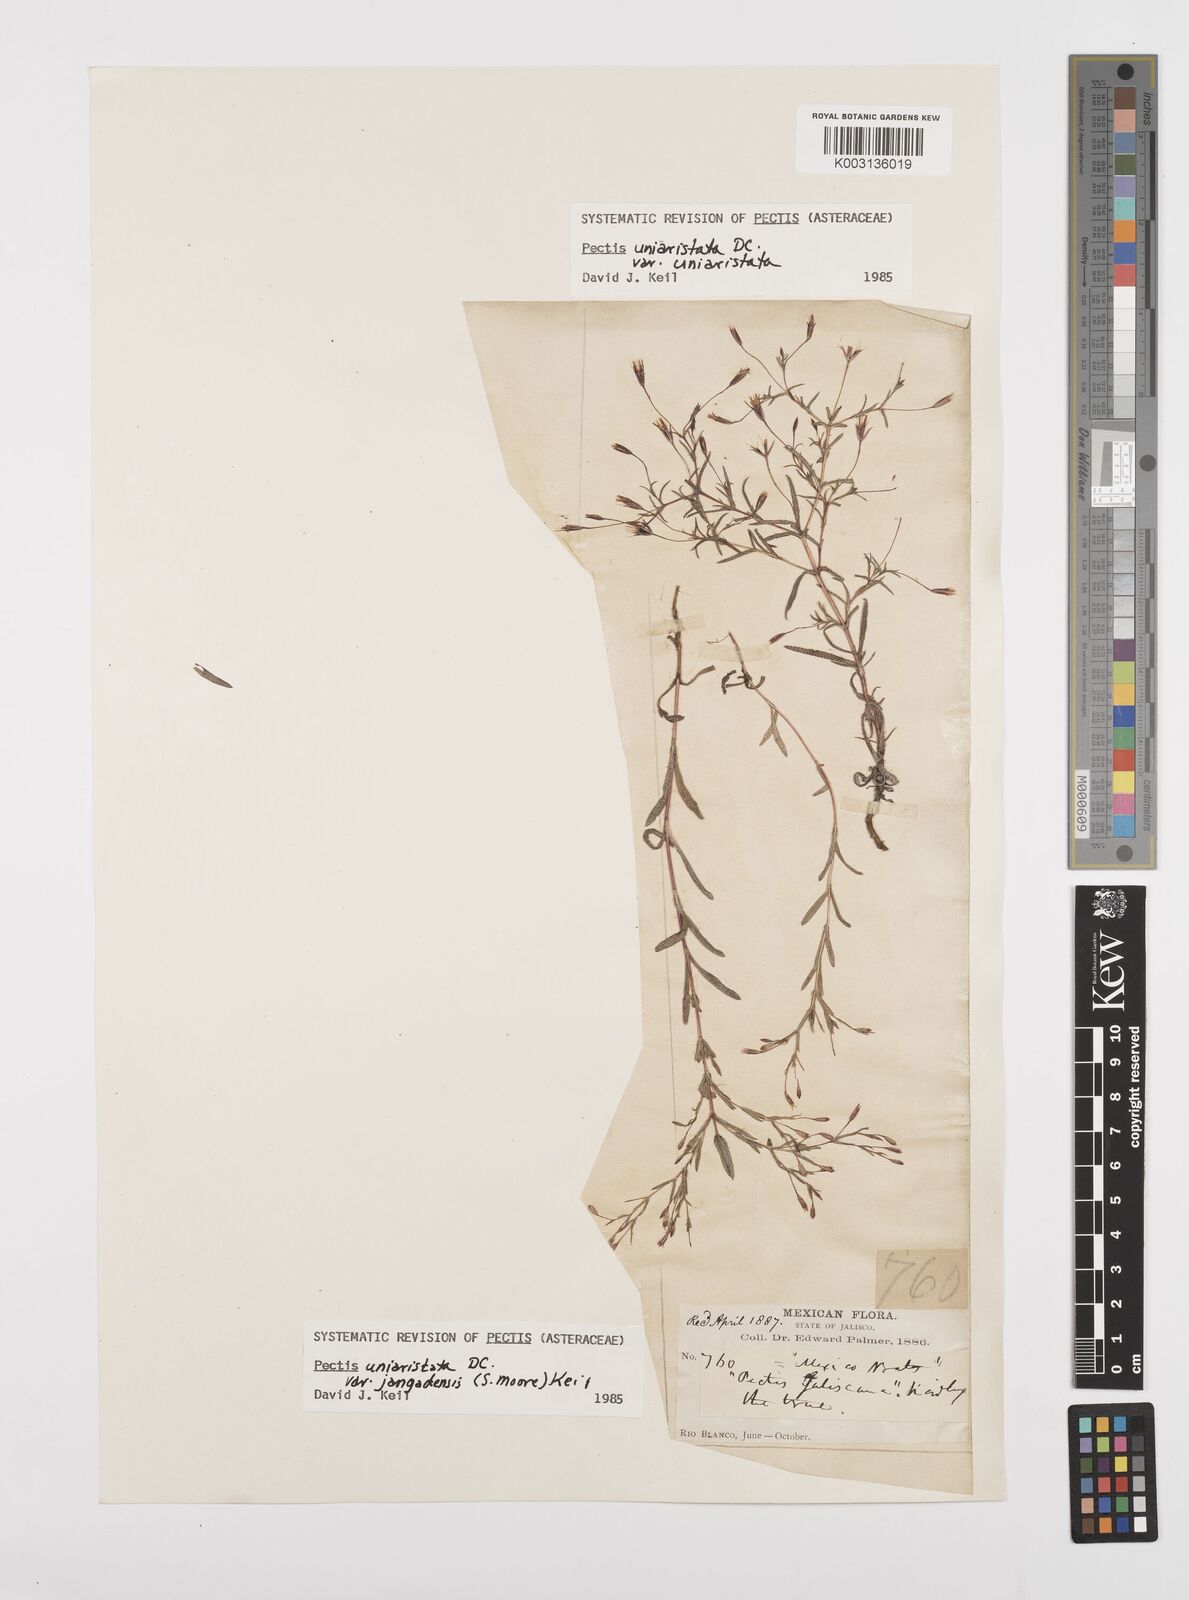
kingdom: Plantae
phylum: Tracheophyta
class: Magnoliopsida
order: Asterales
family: Asteraceae
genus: Pectis
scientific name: Pectis linearis
